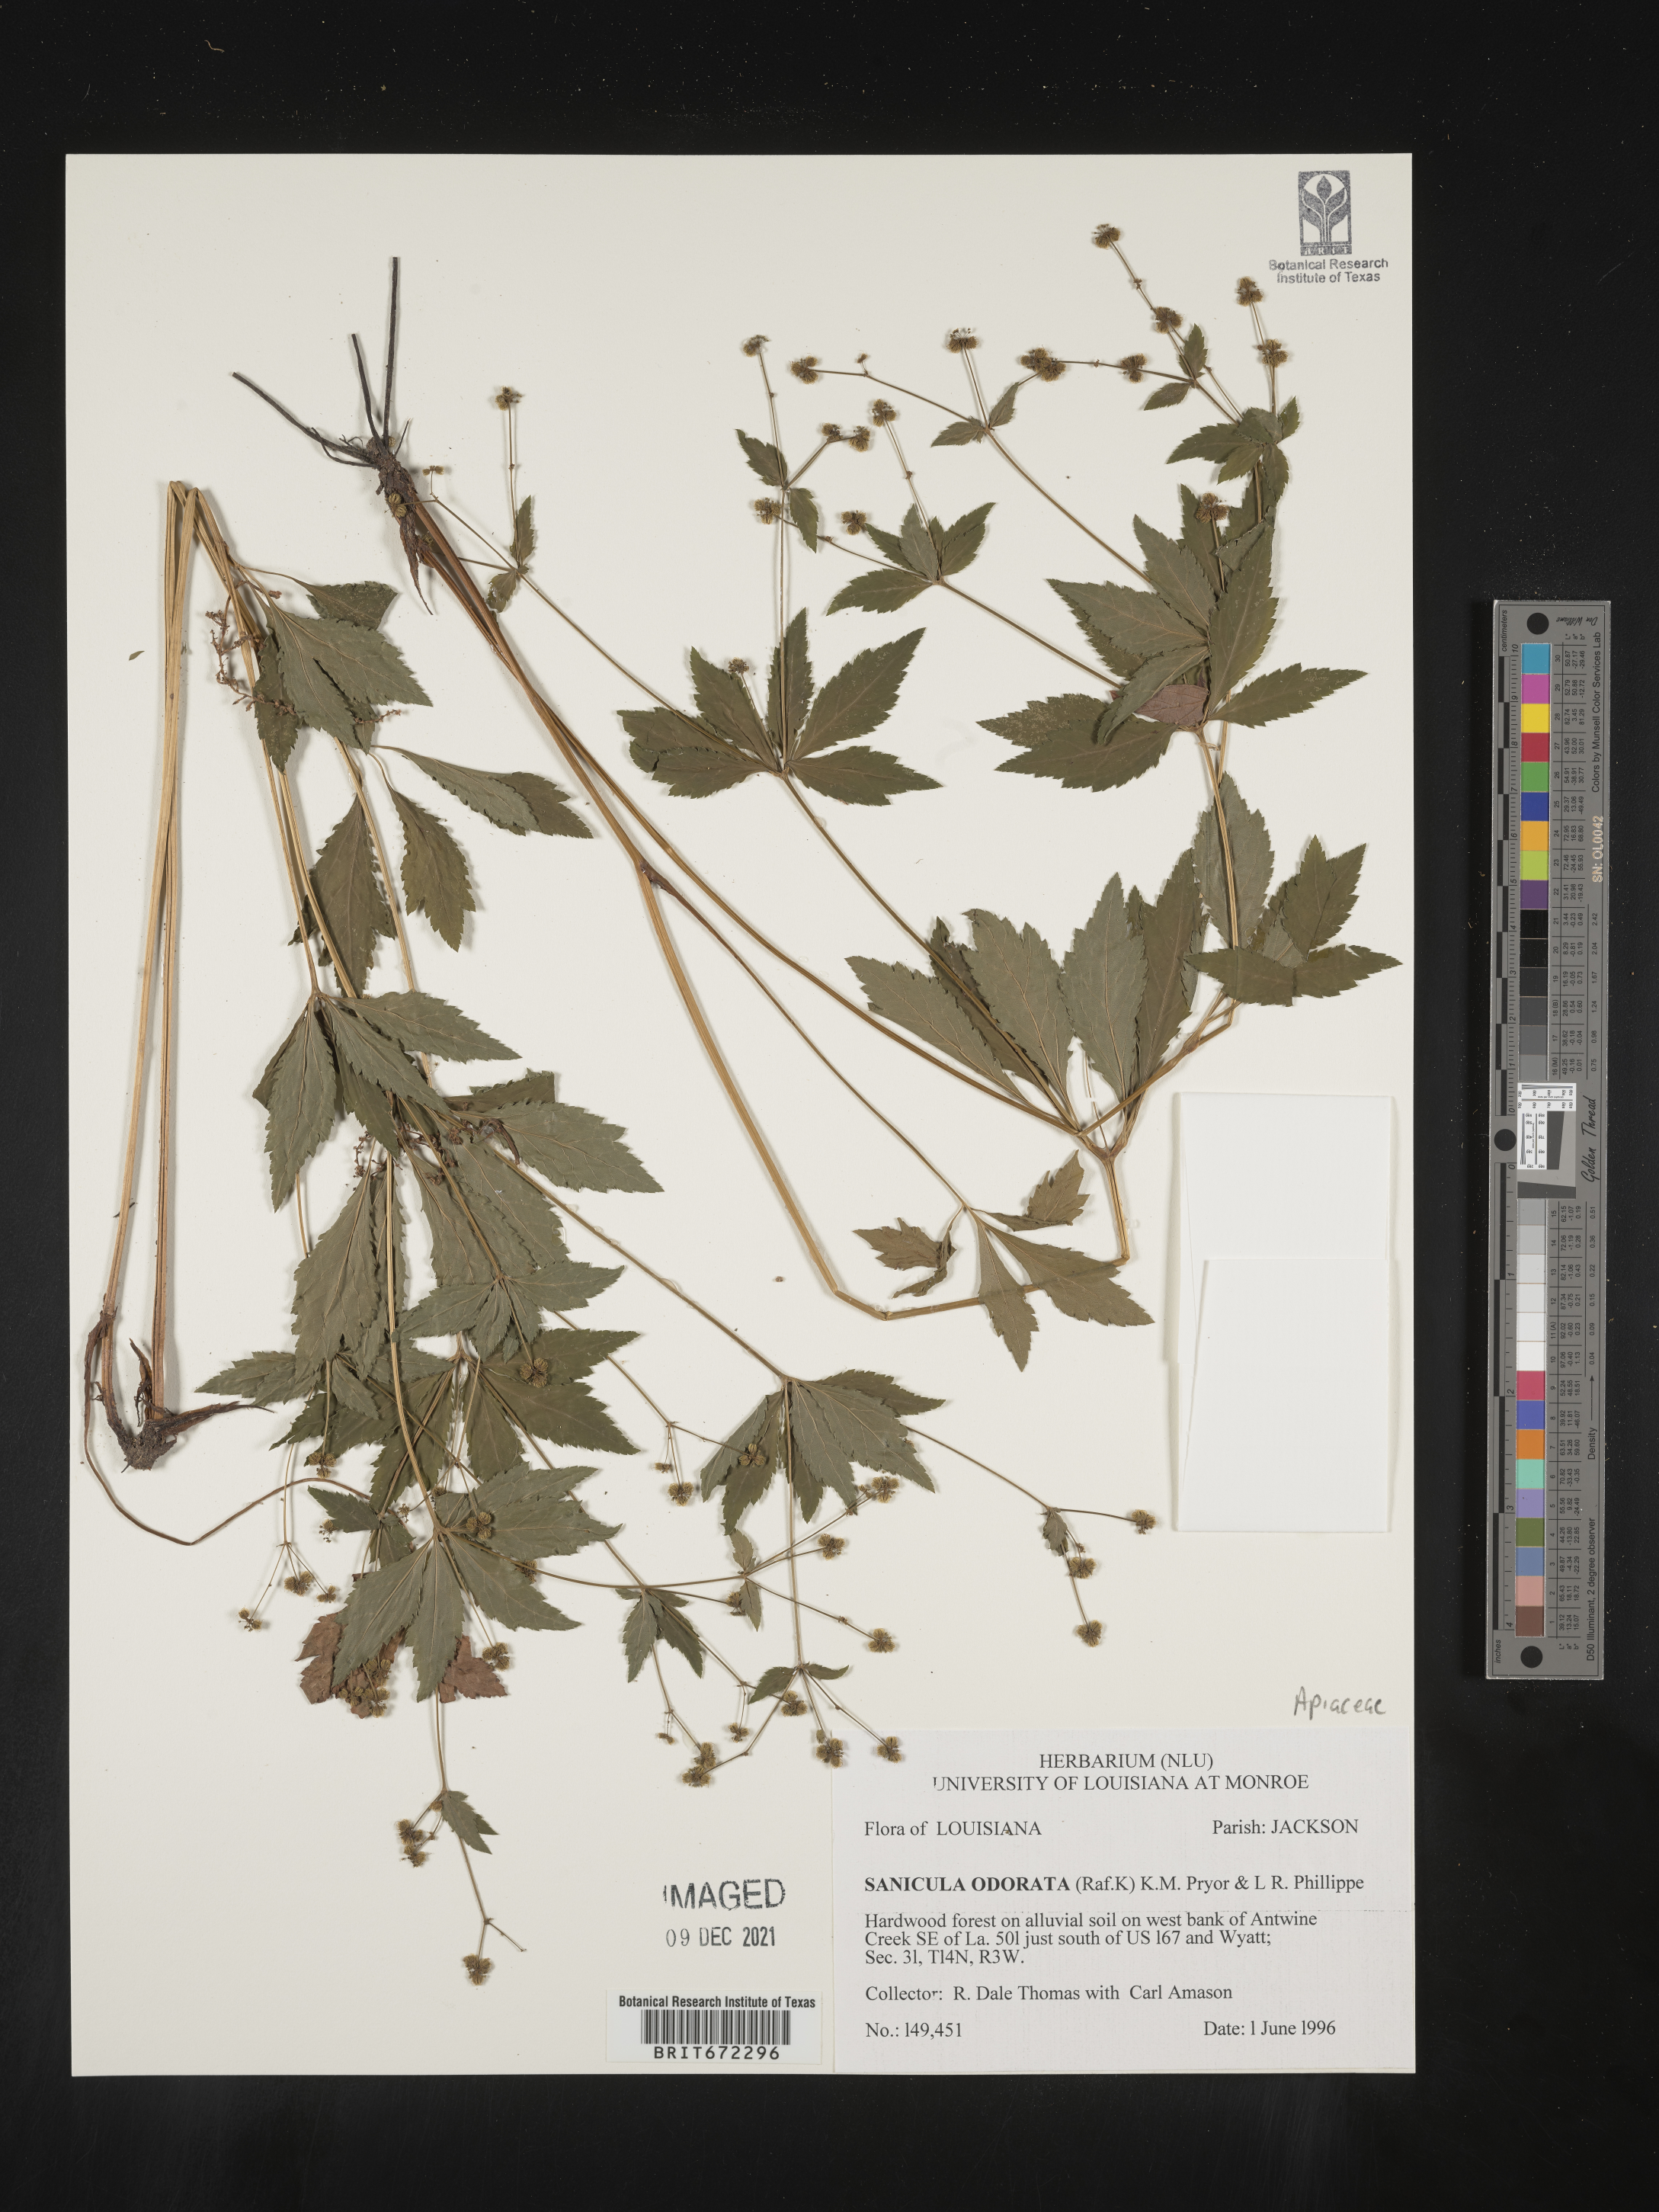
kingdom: Plantae
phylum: Tracheophyta
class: Magnoliopsida
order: Apiales
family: Apiaceae
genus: Sanicula
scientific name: Sanicula
